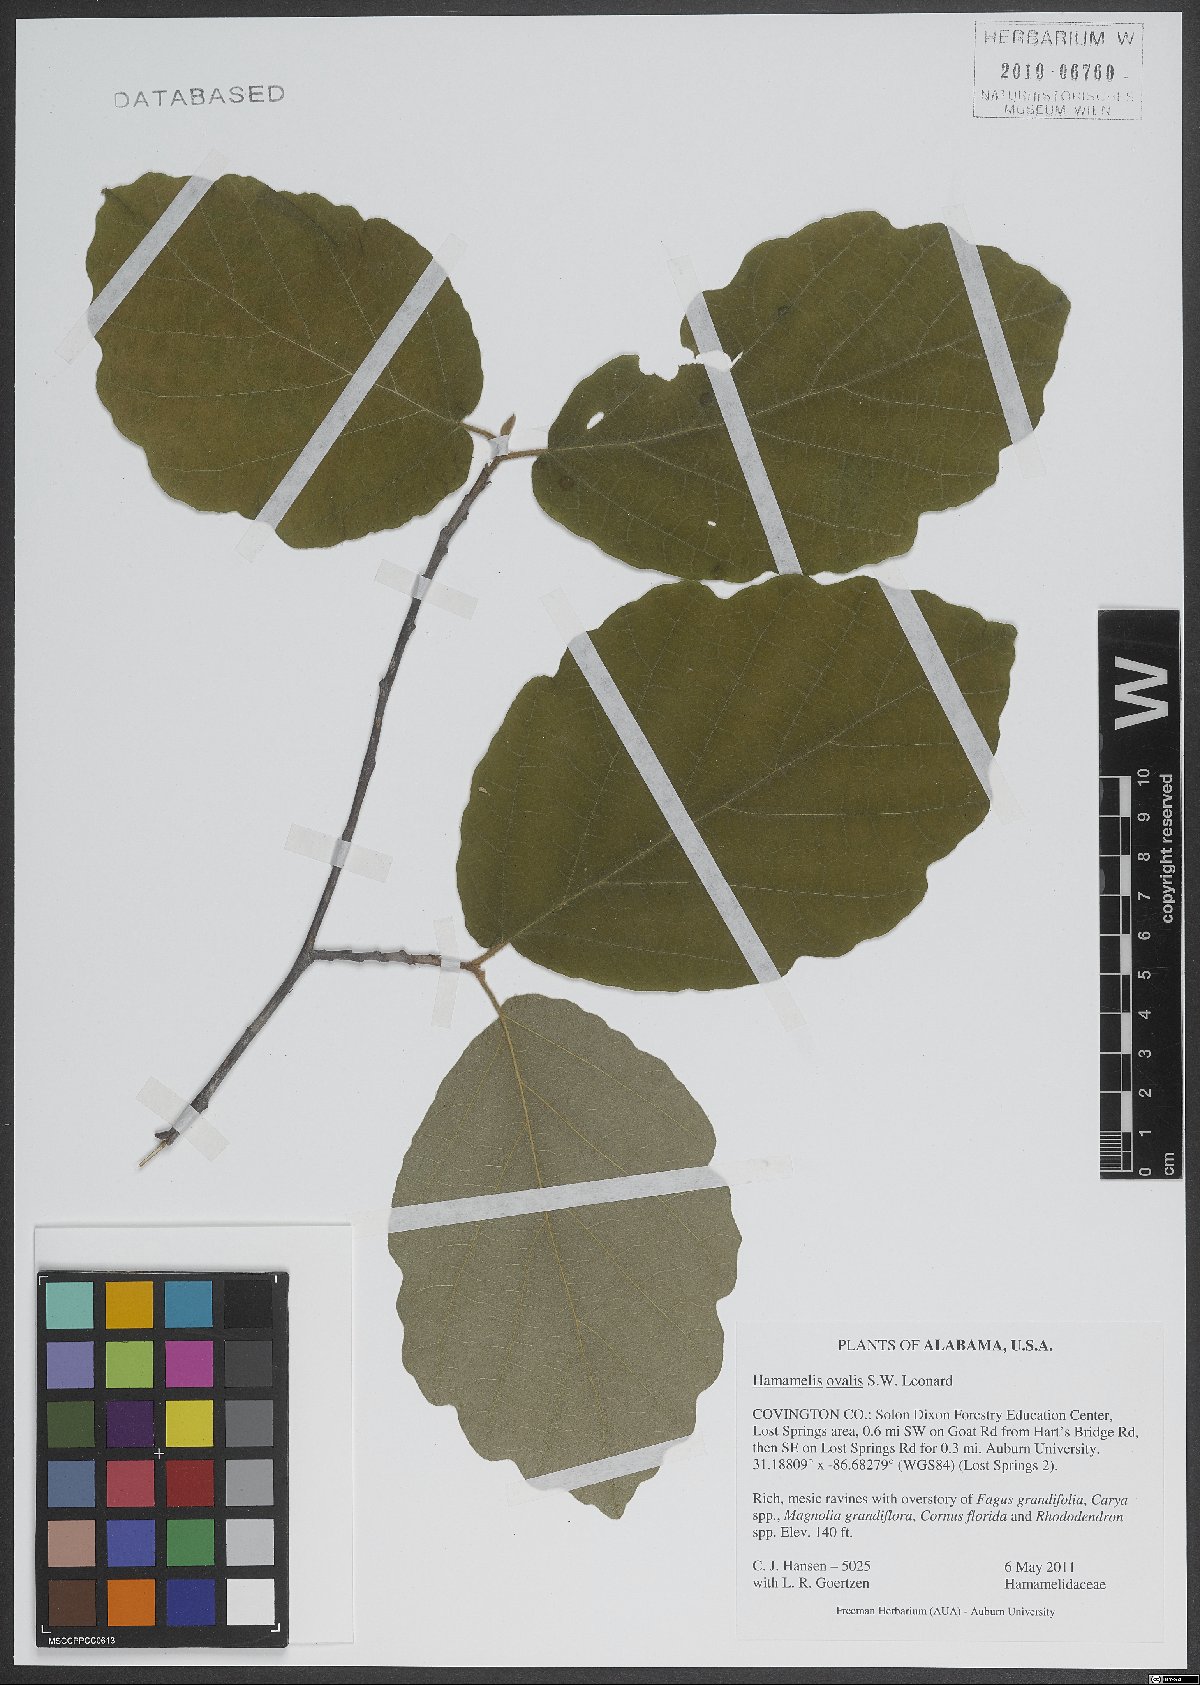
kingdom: Plantae
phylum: Tracheophyta
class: Magnoliopsida
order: Saxifragales
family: Hamamelidaceae
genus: Hamamelis
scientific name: Hamamelis ovalis
